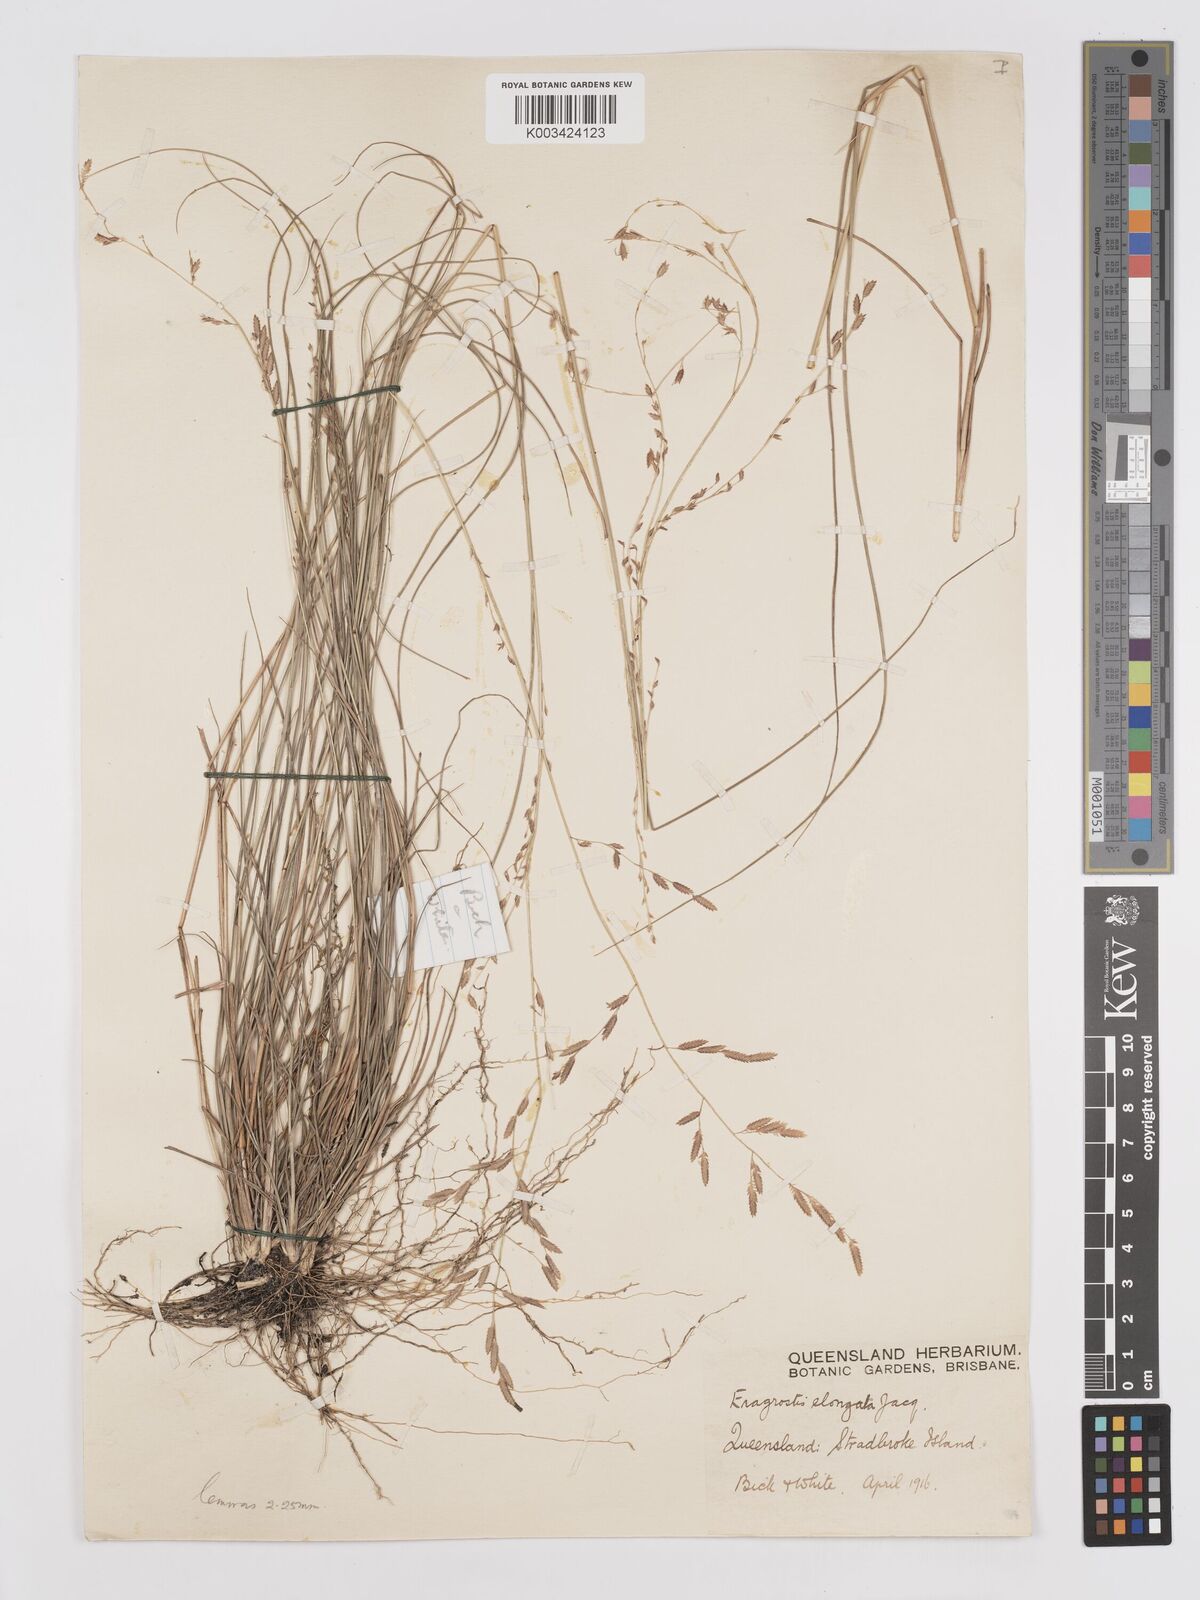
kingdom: Plantae
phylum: Tracheophyta
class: Liliopsida
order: Poales
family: Poaceae
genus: Eragrostis
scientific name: Eragrostis brownii
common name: Lovegrass
